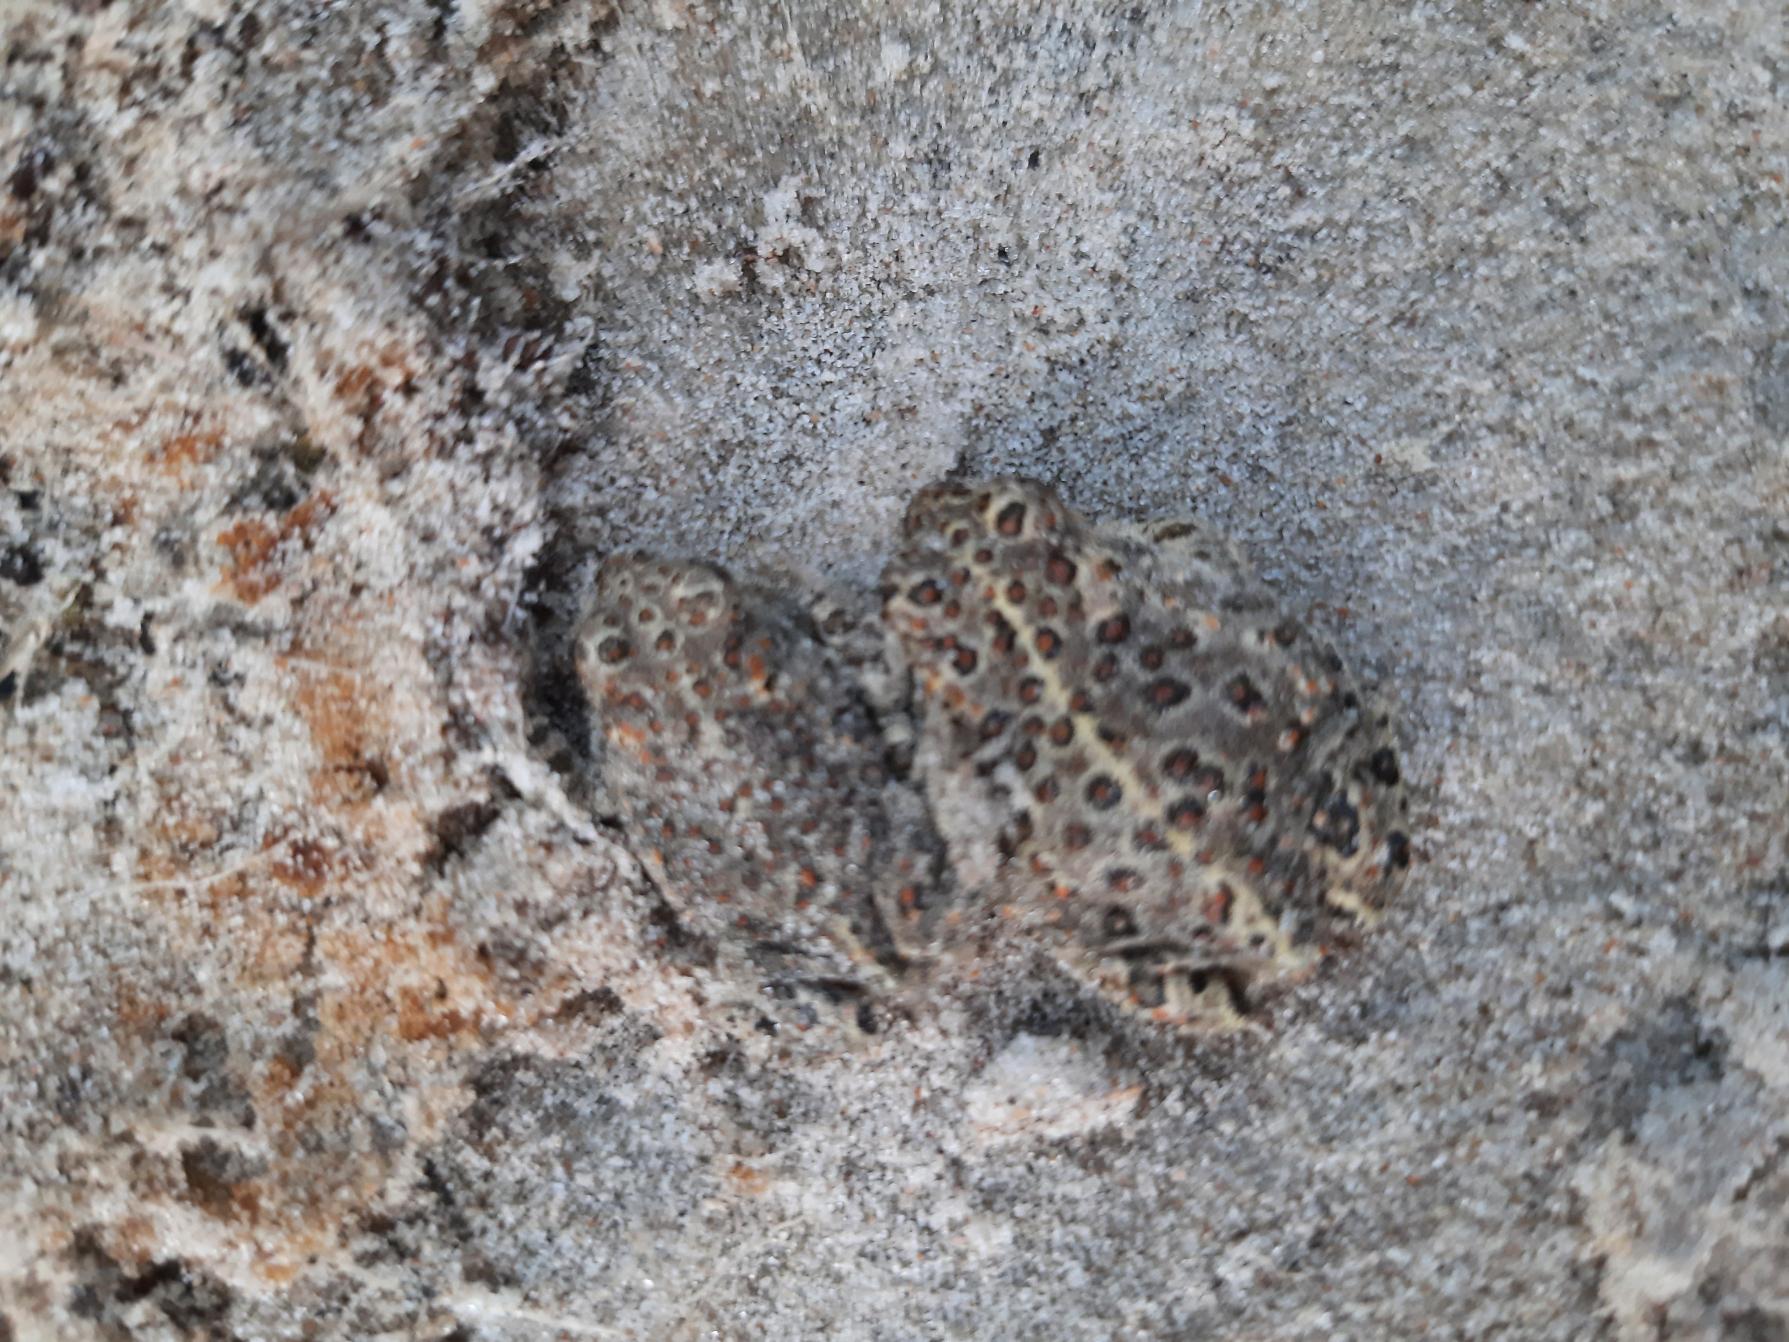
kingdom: Animalia
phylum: Chordata
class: Amphibia
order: Anura
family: Bufonidae
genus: Epidalea
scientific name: Epidalea calamita
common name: Strandtudse
